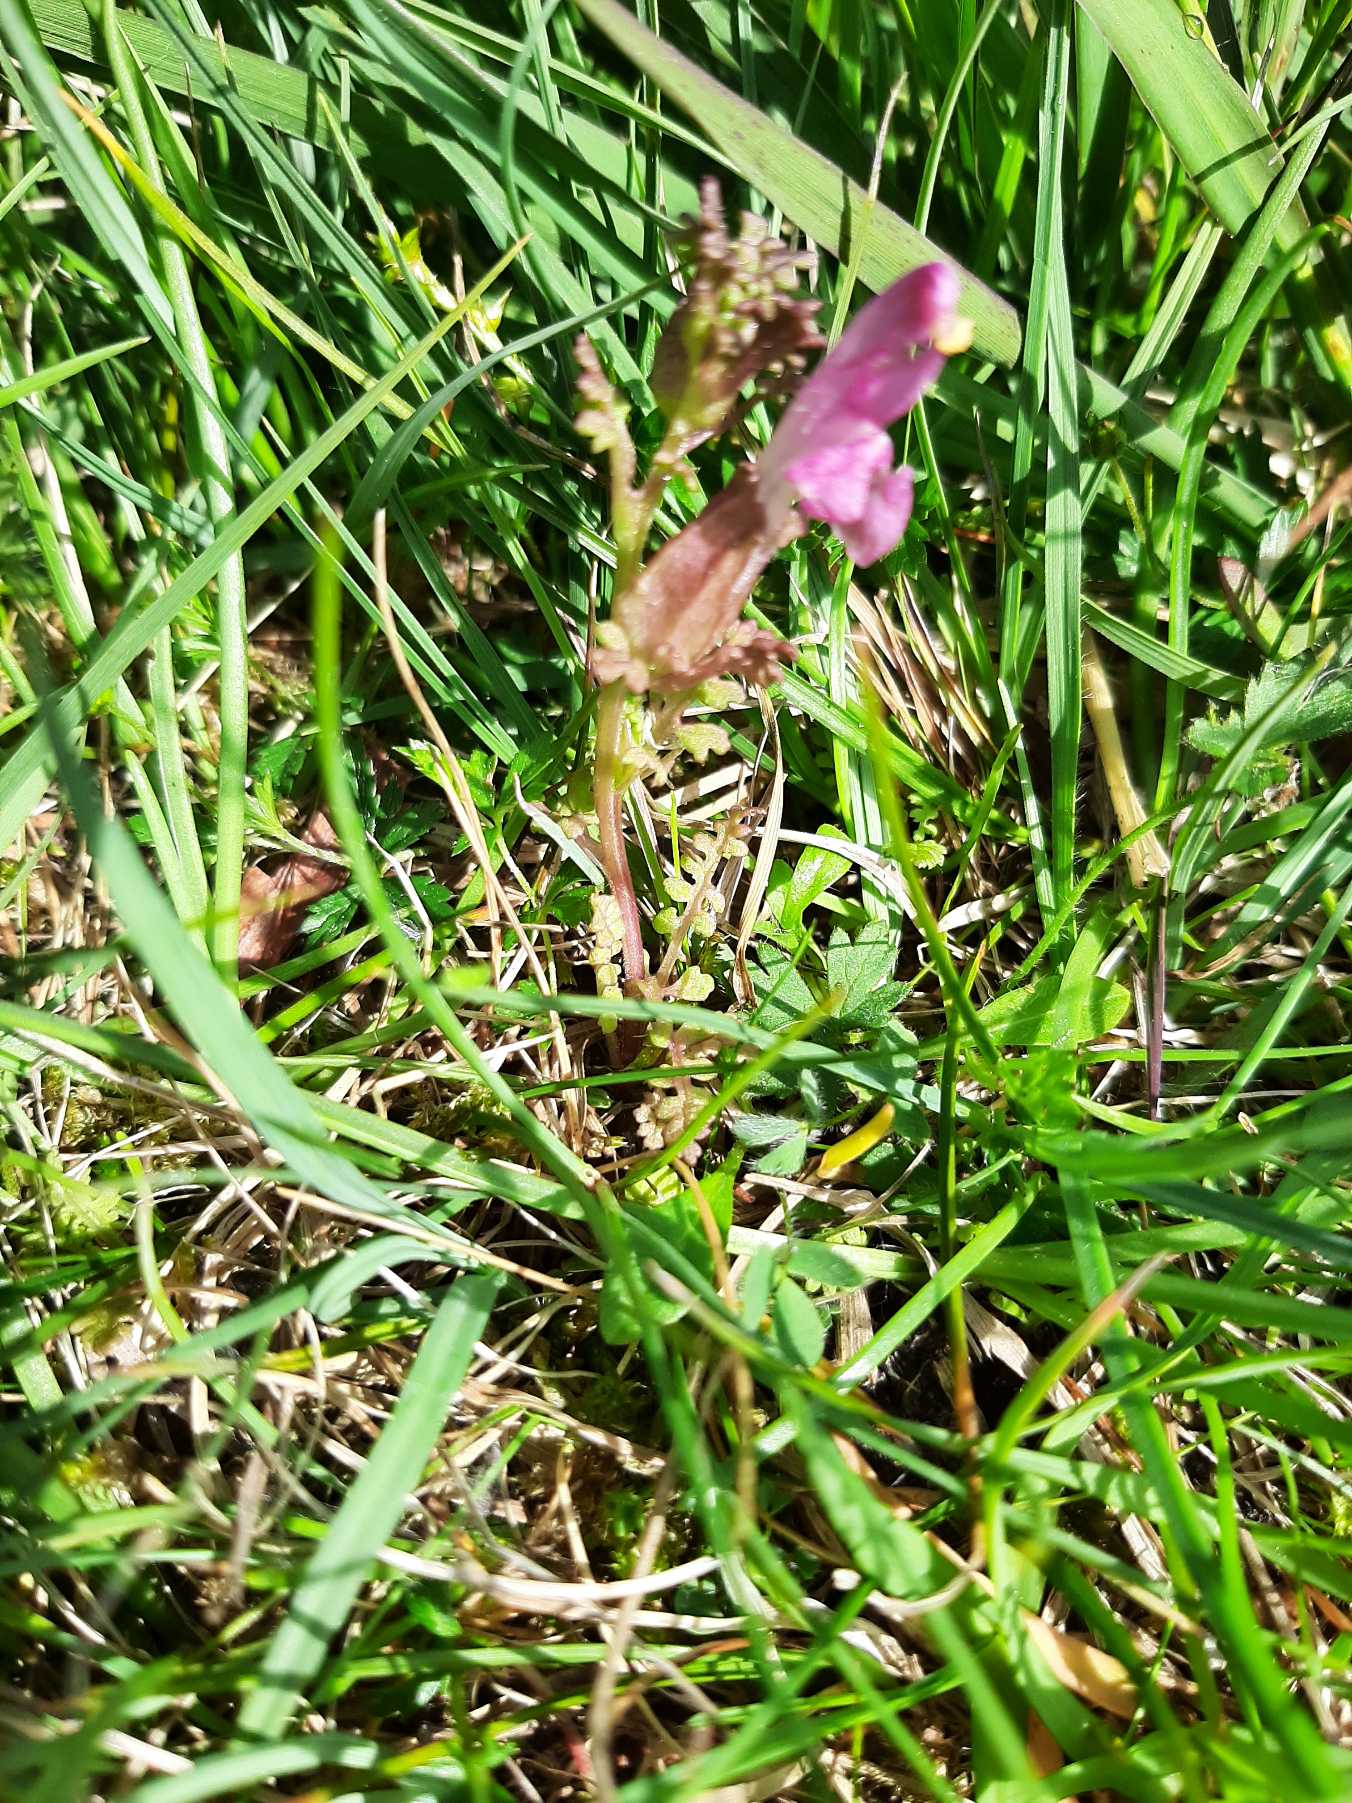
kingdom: Plantae
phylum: Tracheophyta
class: Magnoliopsida
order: Lamiales
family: Orobanchaceae
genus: Pedicularis
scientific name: Pedicularis sylvatica
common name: Mose-troldurt
